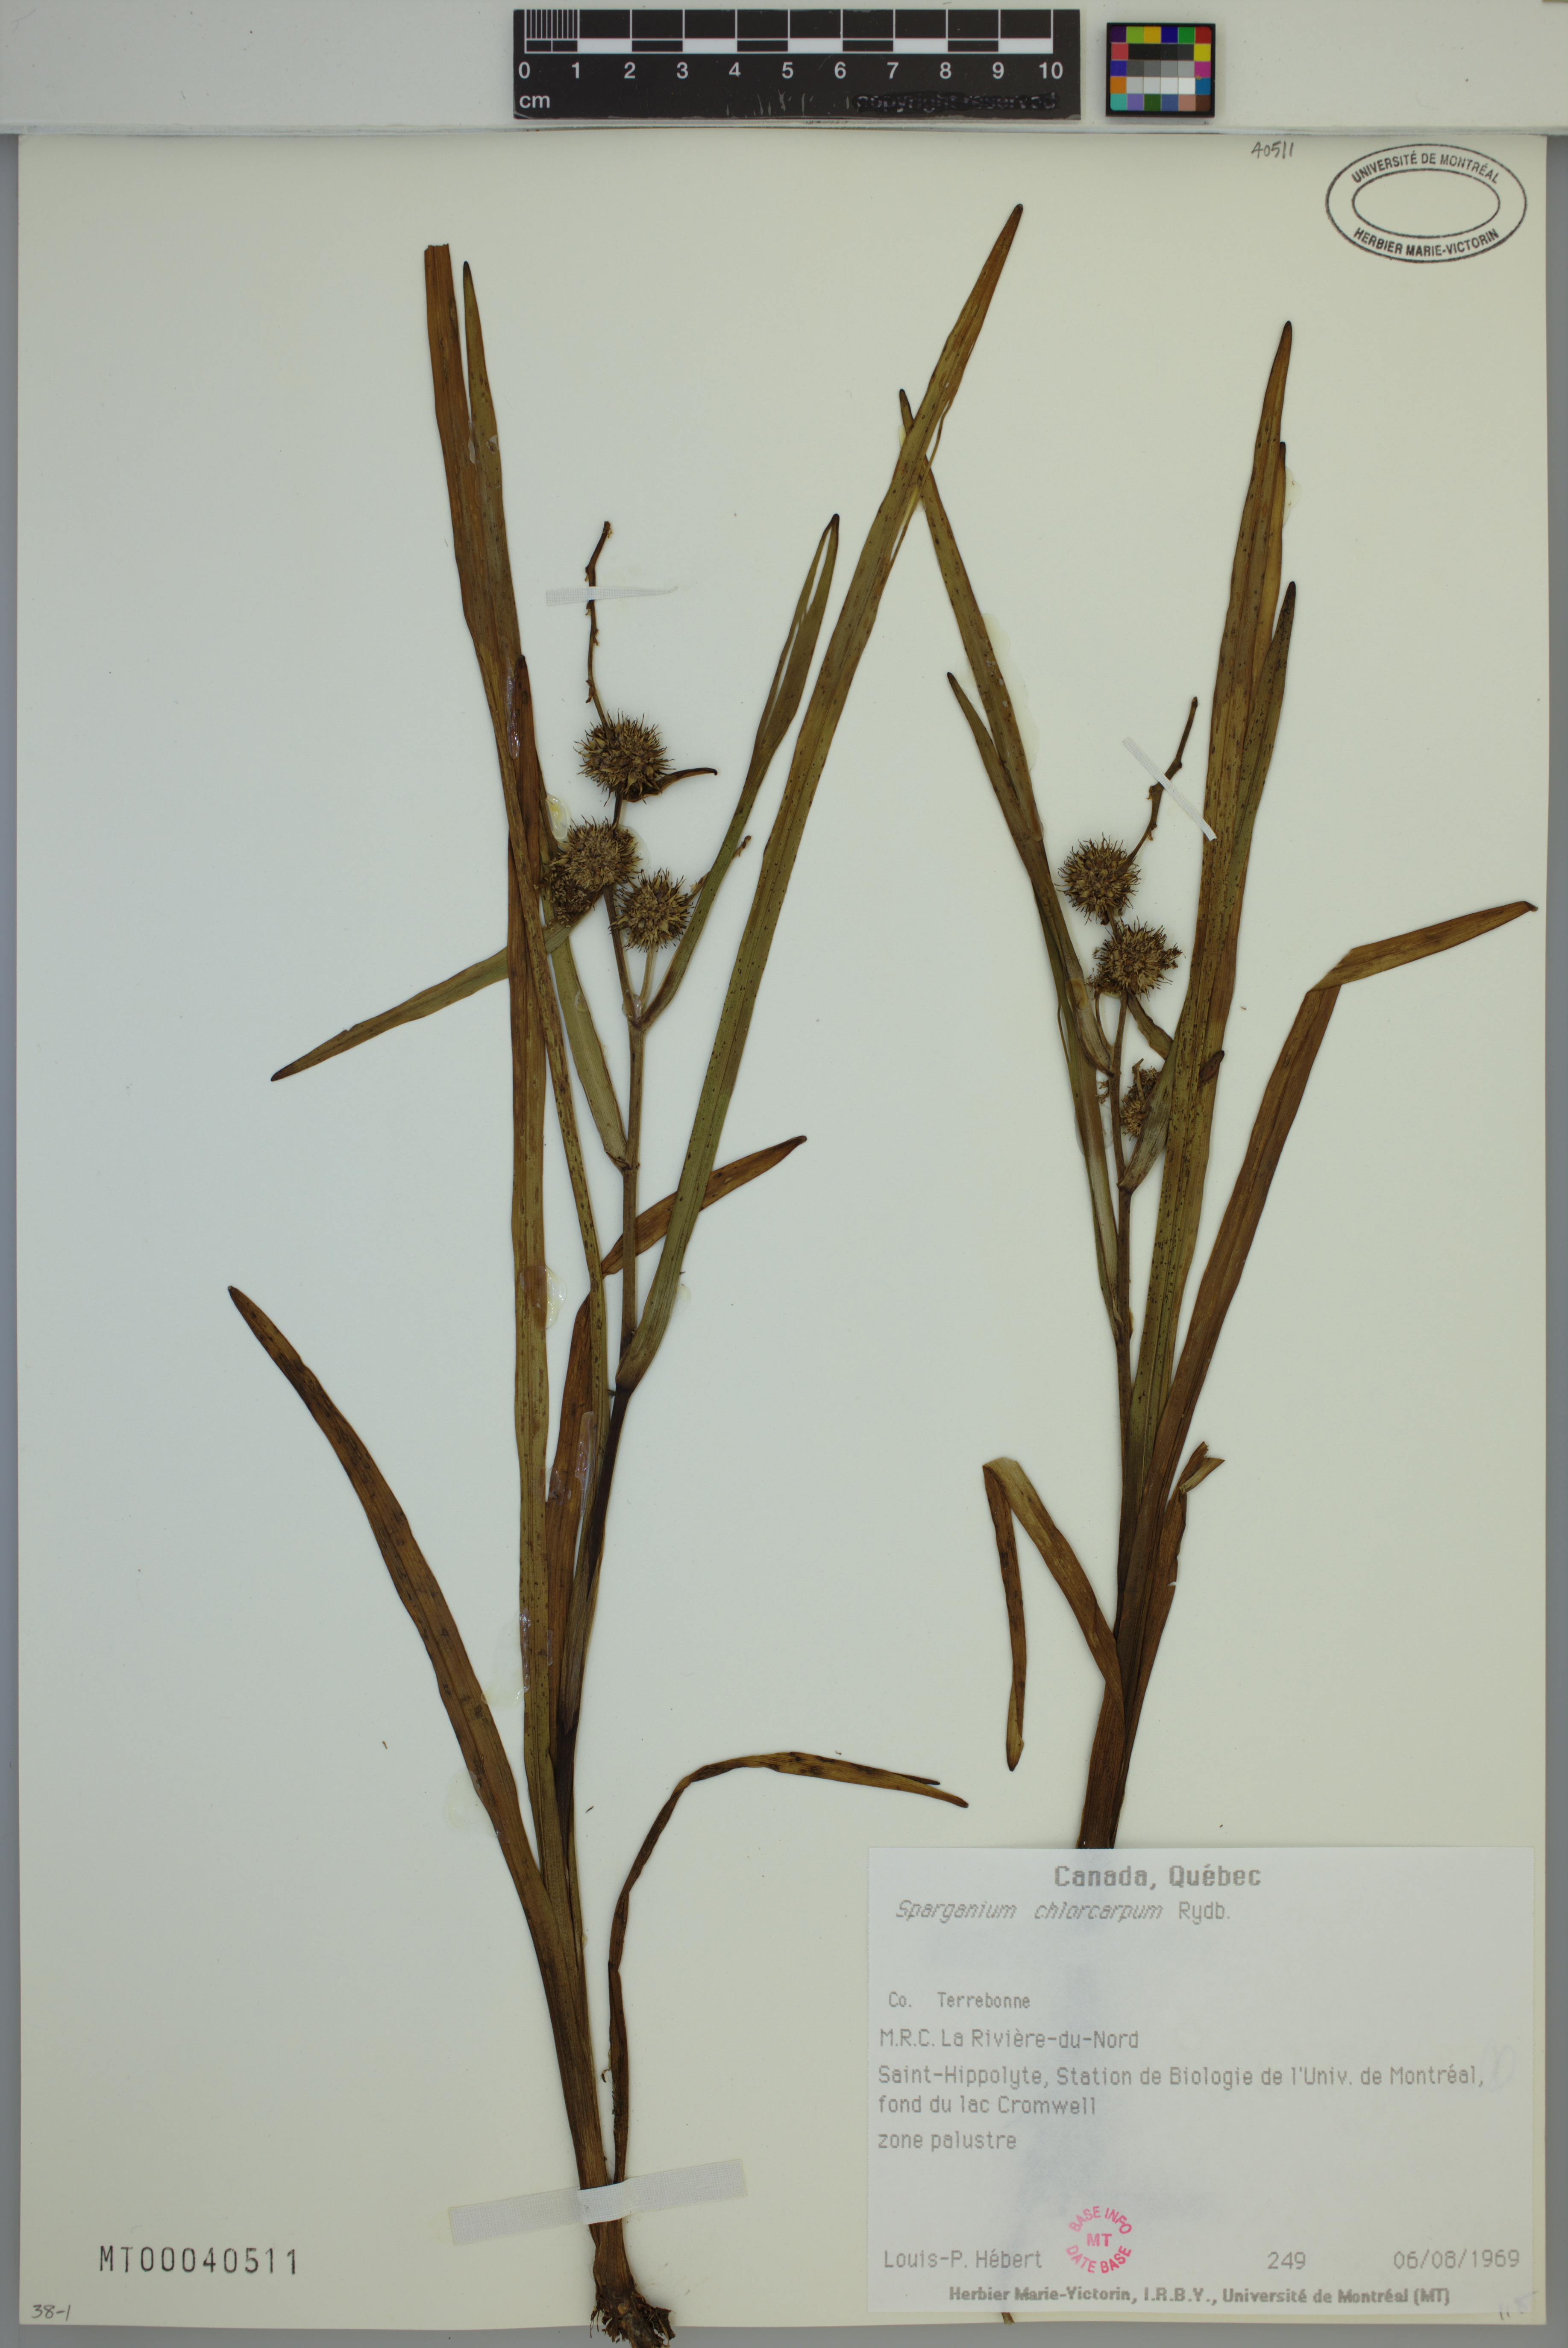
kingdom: Plantae
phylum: Tracheophyta
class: Liliopsida
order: Poales
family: Typhaceae
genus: Sparganium
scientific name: Sparganium emersum
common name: Unbranched bur-reed
